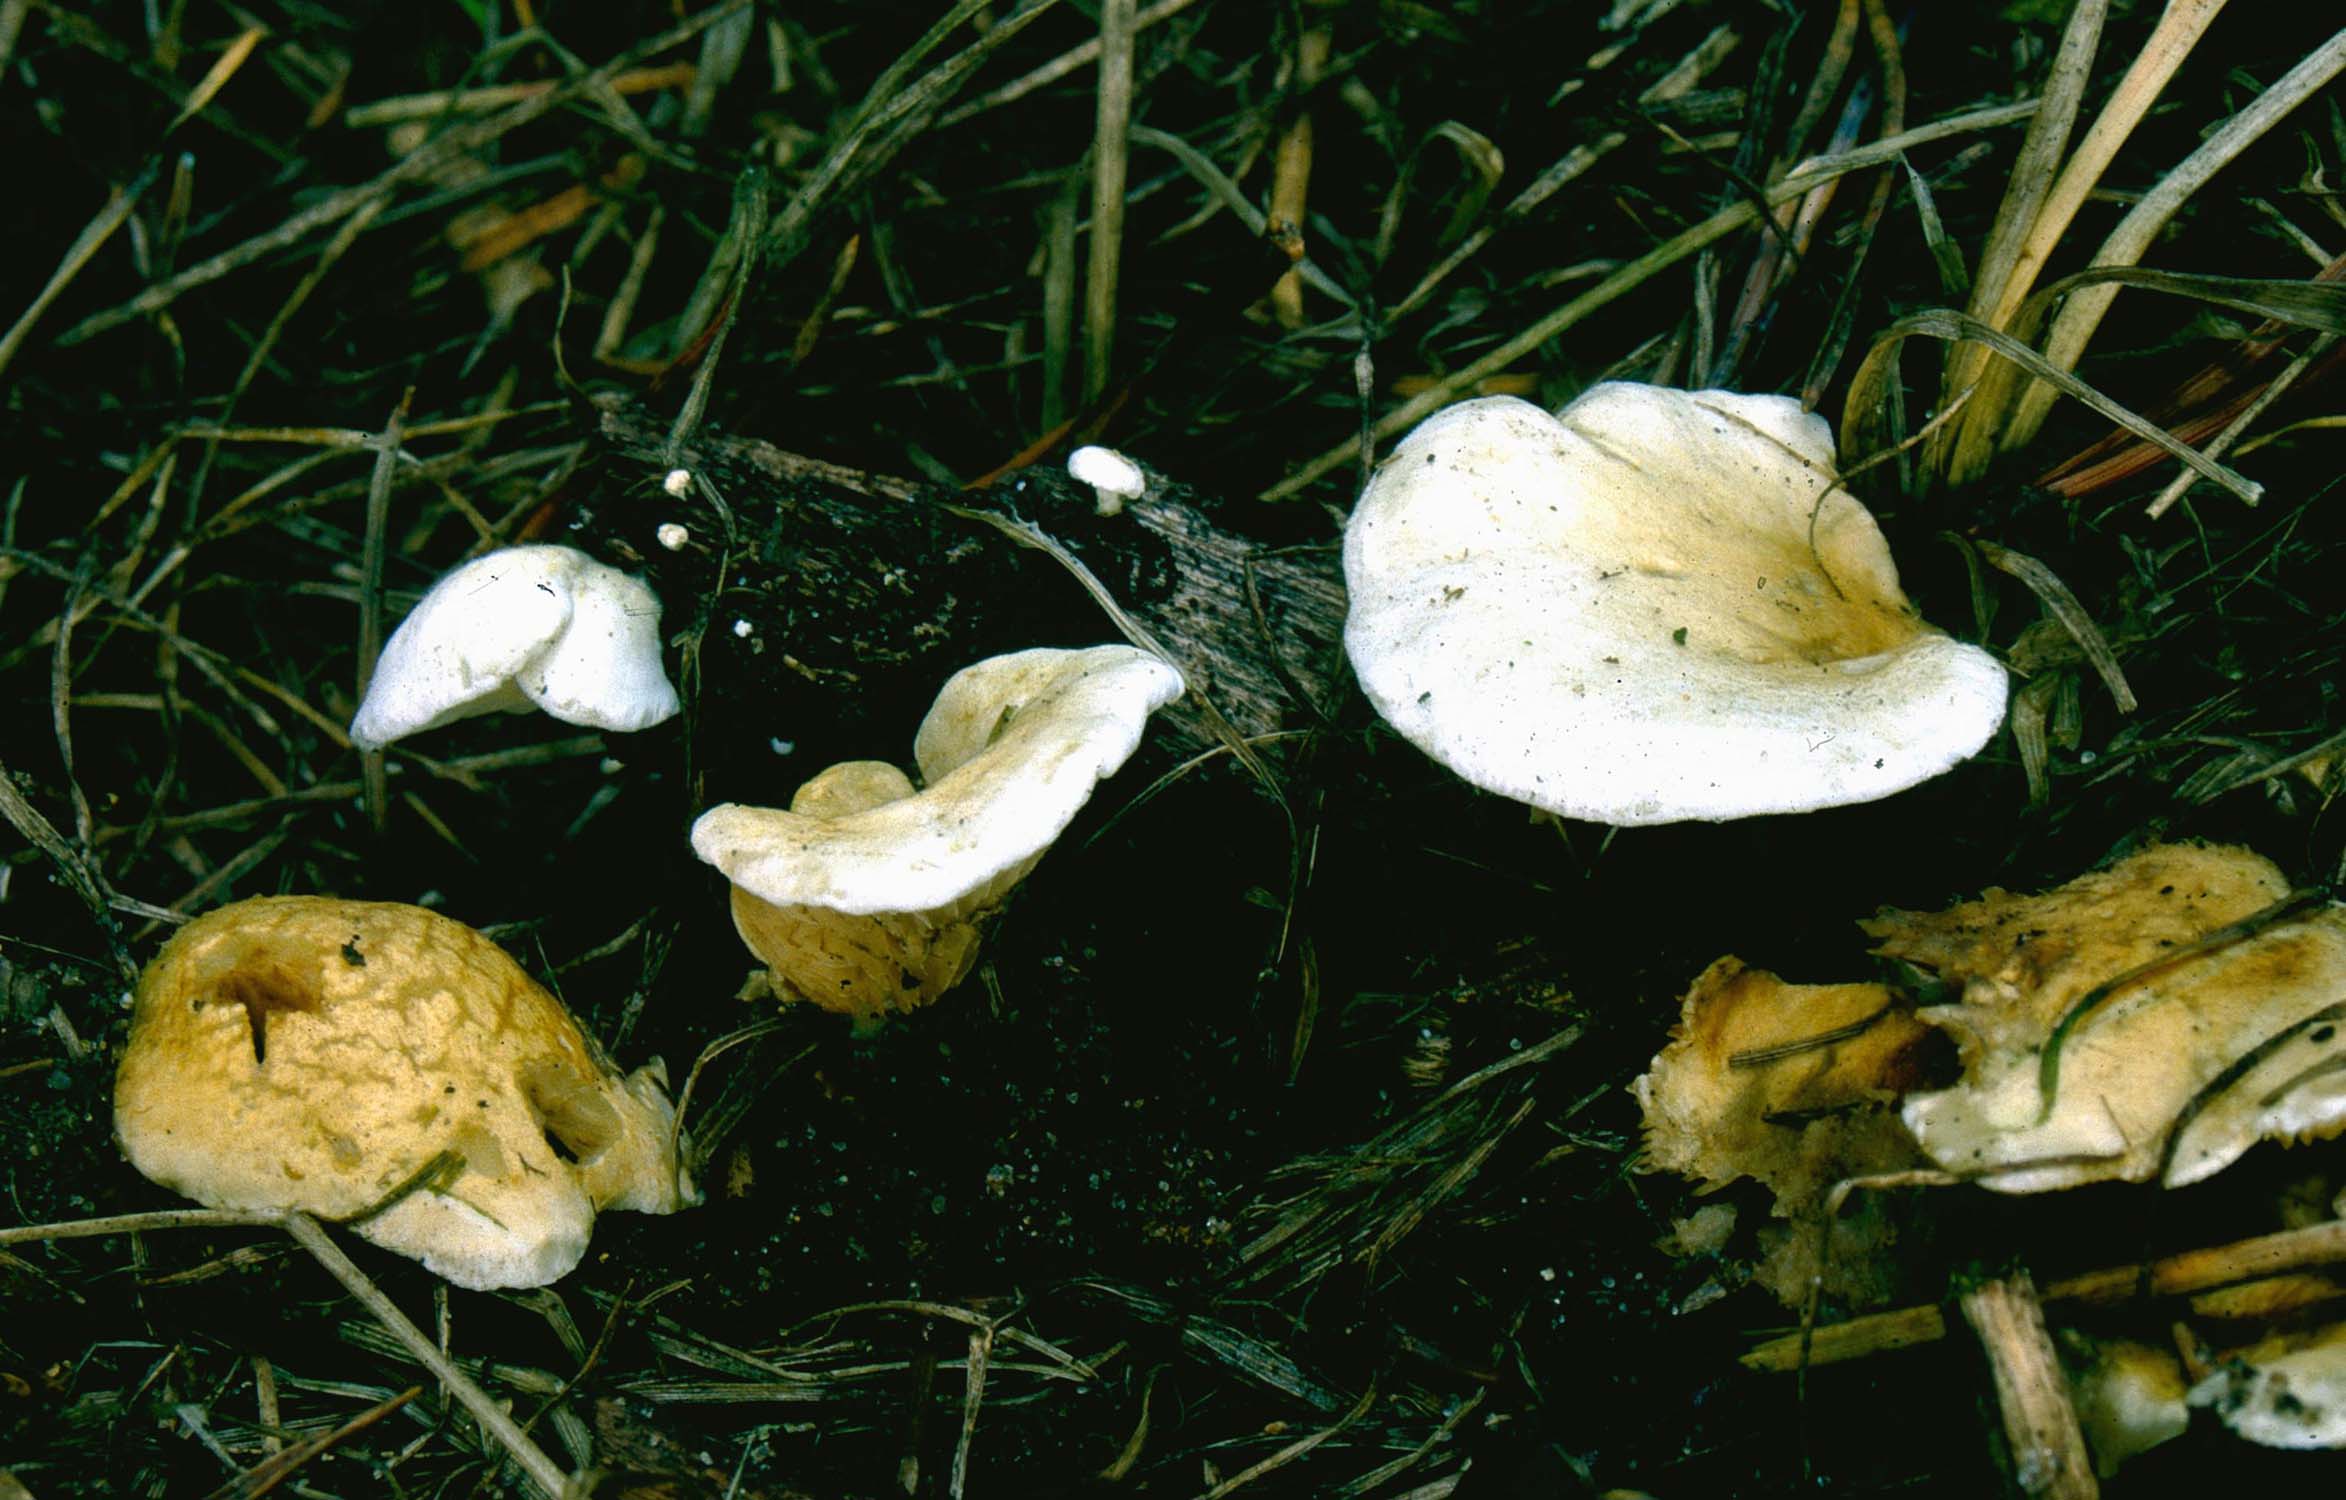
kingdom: Fungi
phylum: Basidiomycota
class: Agaricomycetes
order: Agaricales
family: Crepidotaceae
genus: Crepidotus
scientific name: Crepidotus autochthonus
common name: skæv muslingesvamp
